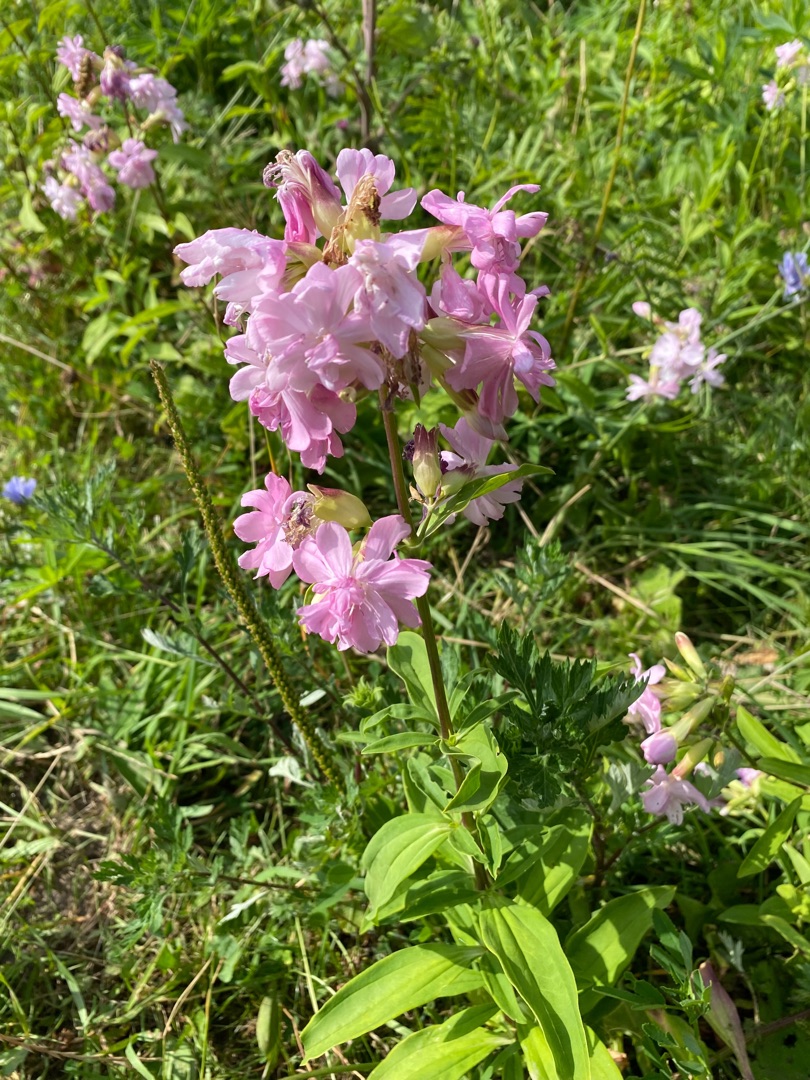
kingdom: Plantae
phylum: Tracheophyta
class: Magnoliopsida
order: Caryophyllales
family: Caryophyllaceae
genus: Saponaria
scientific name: Saponaria officinalis
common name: Sæbeurt
